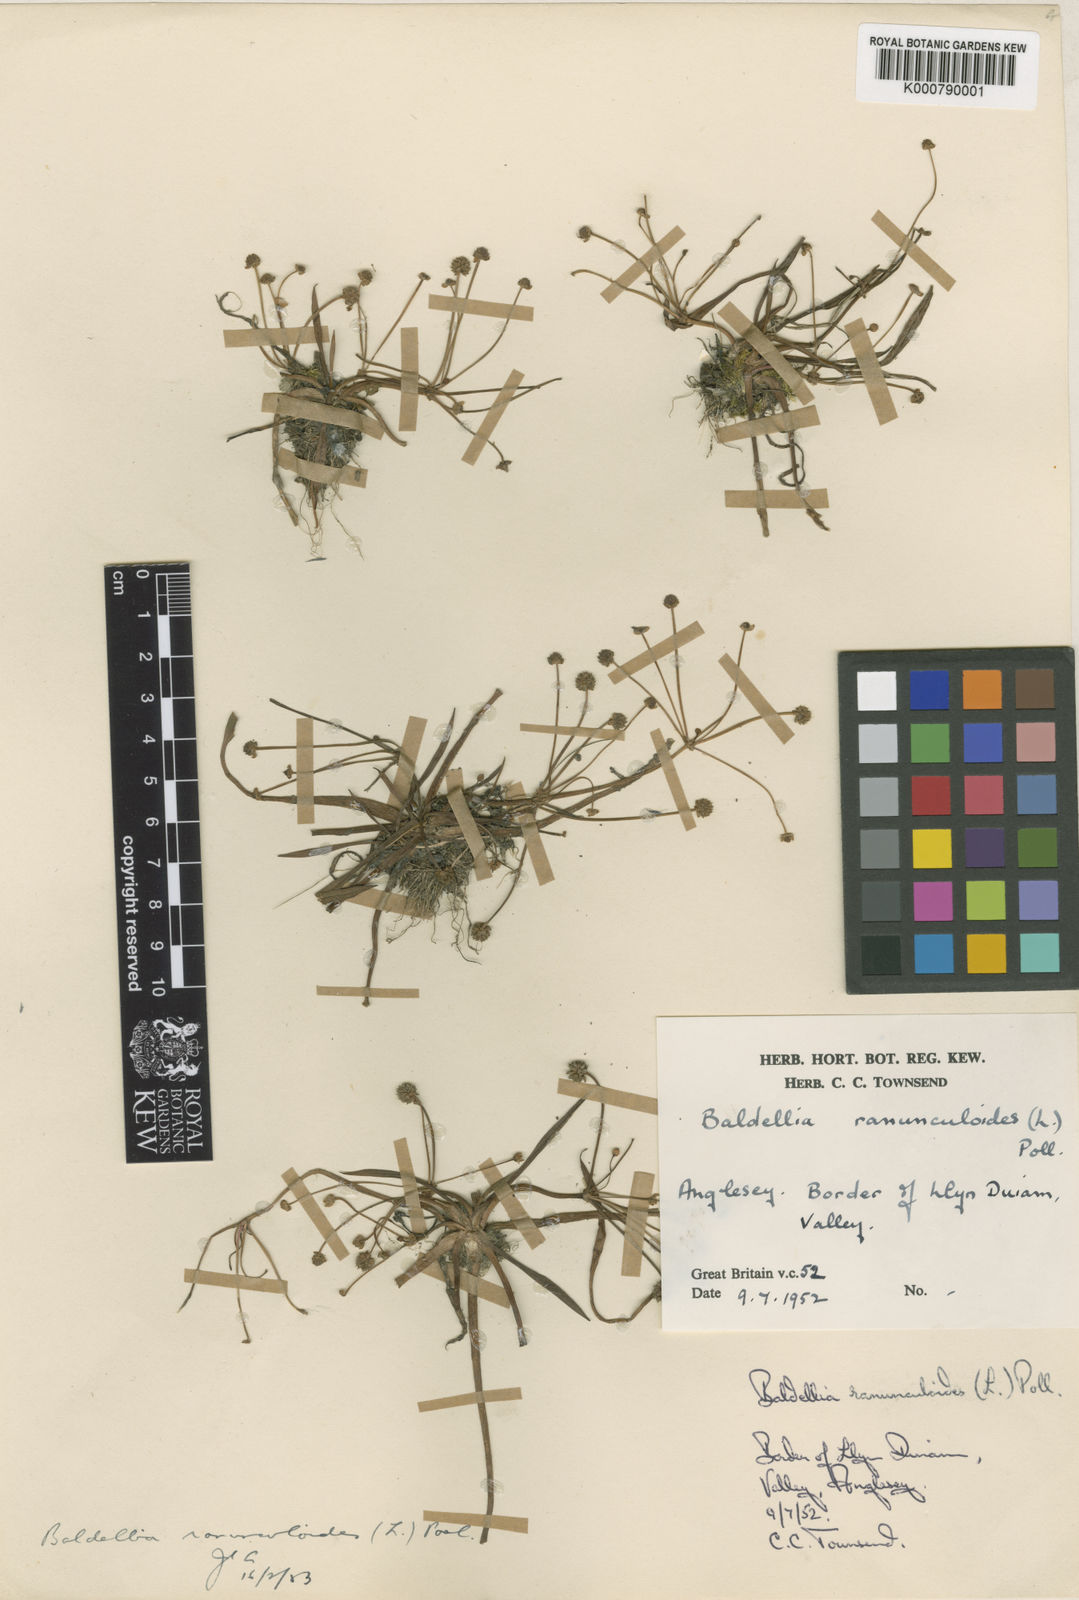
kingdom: Plantae
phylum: Tracheophyta
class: Liliopsida
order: Alismatales
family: Alismataceae
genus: Baldellia
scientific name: Baldellia ranunculoides
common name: Lesser water-plantain
